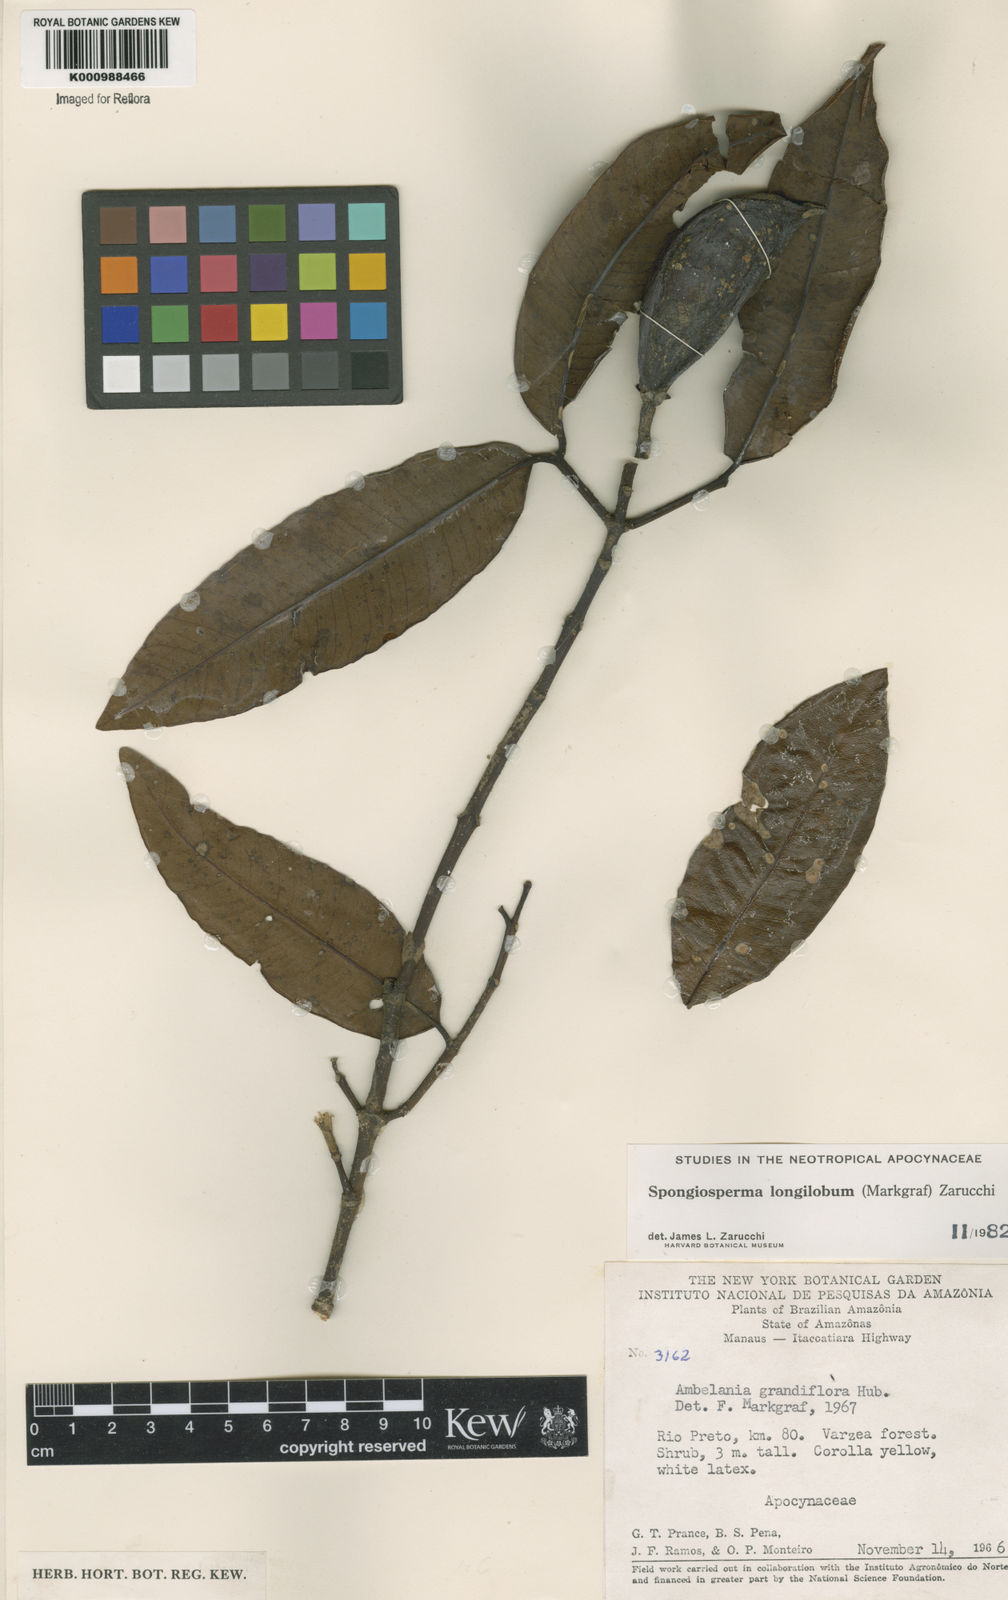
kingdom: Plantae
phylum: Tracheophyta
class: Magnoliopsida
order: Gentianales
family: Apocynaceae
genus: Aspidosperma
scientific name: Aspidosperma
